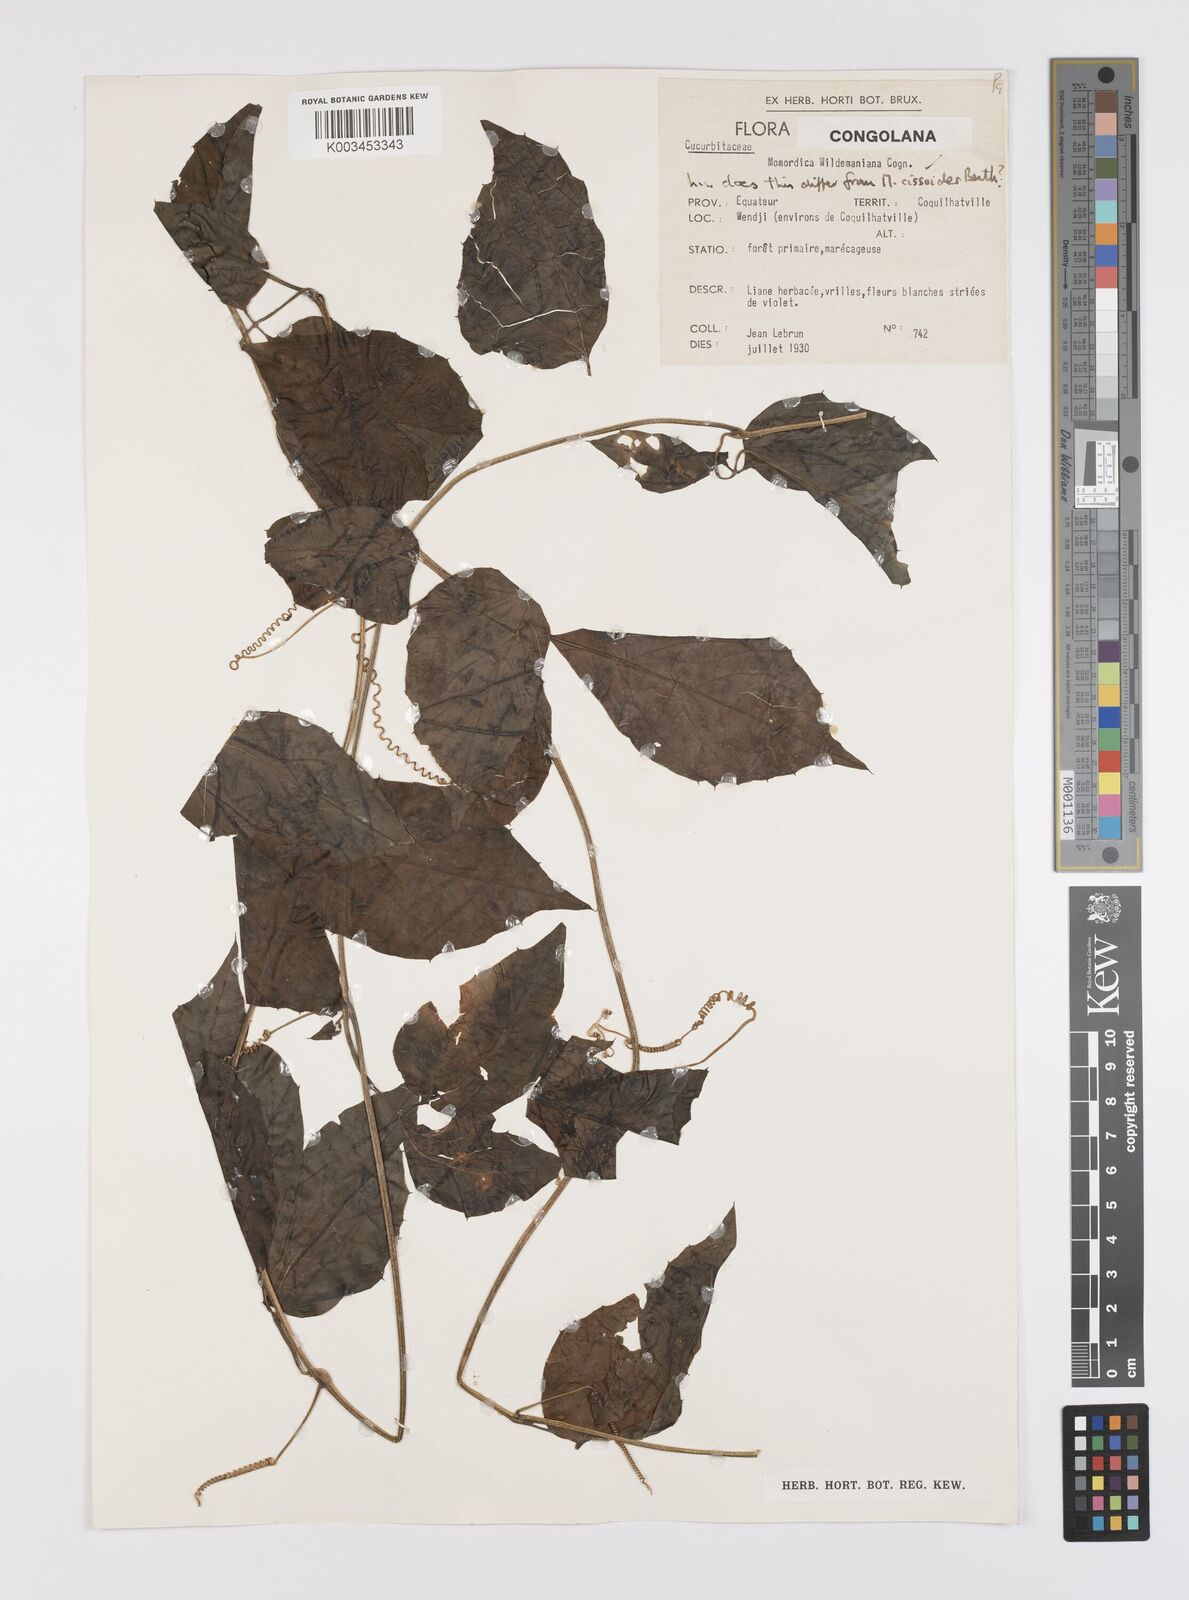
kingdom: Plantae
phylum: Tracheophyta
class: Magnoliopsida
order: Cucurbitales
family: Cucurbitaceae
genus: Momordica
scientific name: Momordica cissoides
